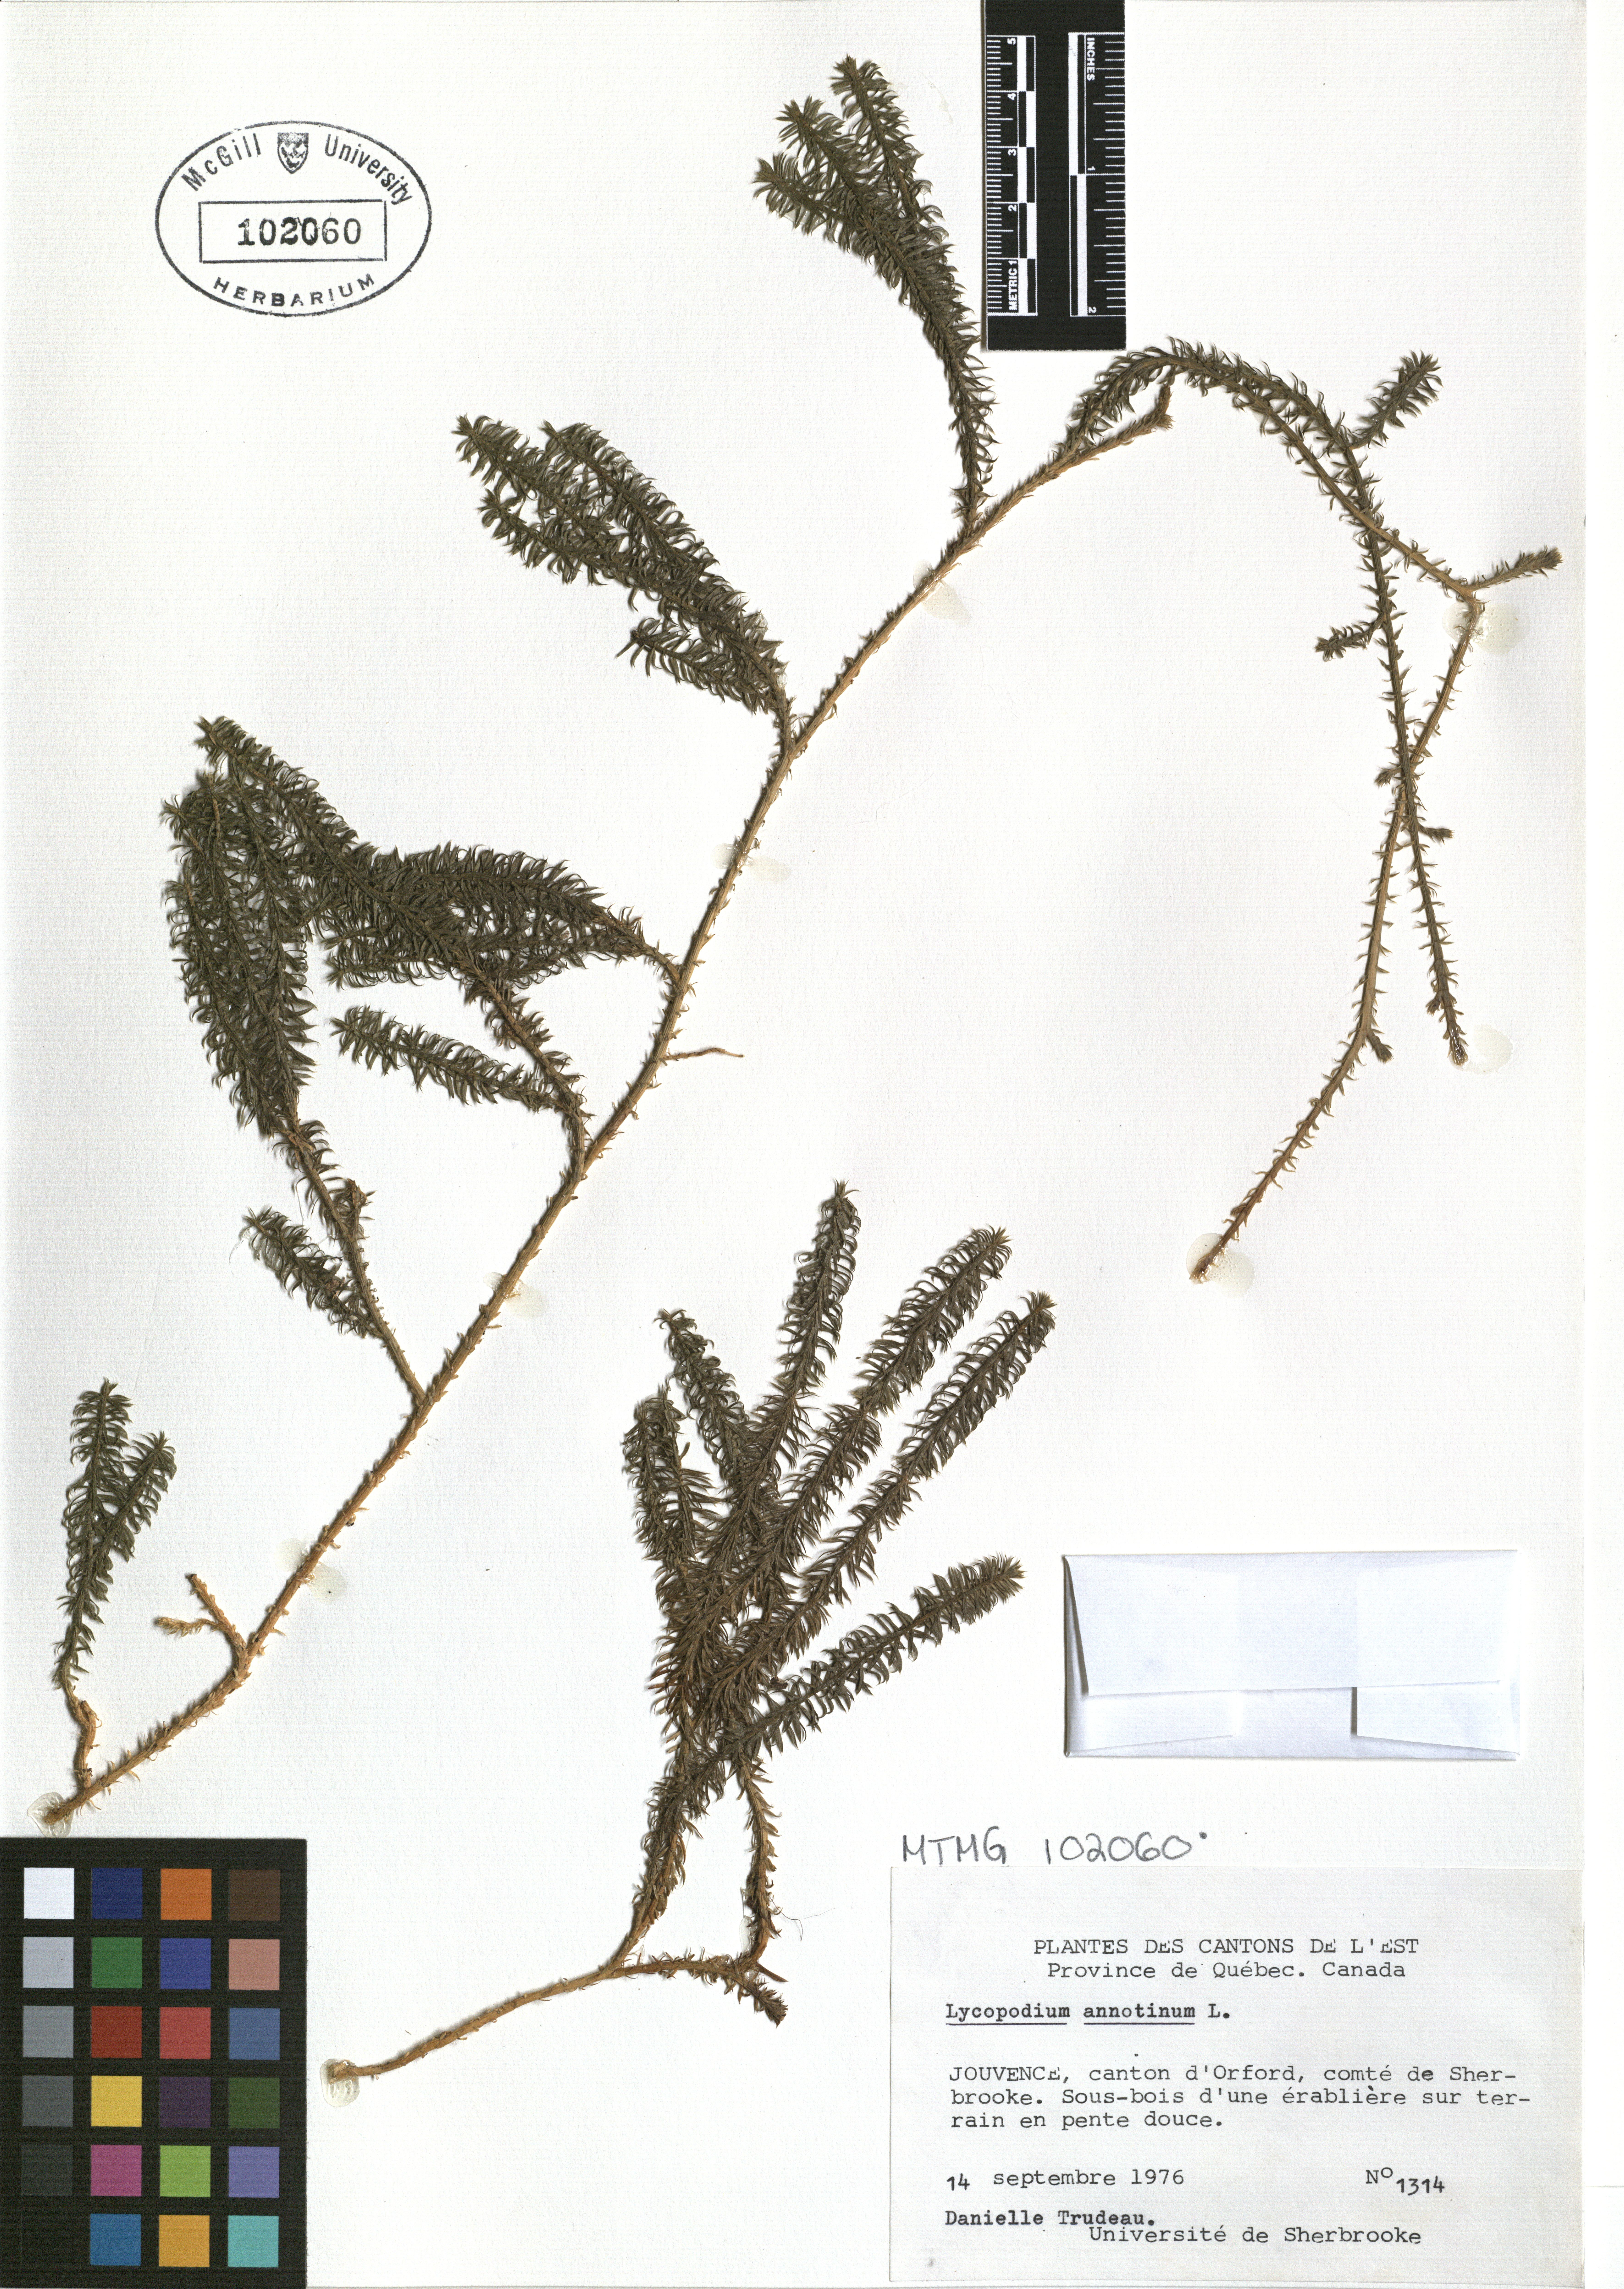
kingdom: Plantae
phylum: Tracheophyta
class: Lycopodiopsida
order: Lycopodiales
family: Lycopodiaceae
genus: Spinulum
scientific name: Spinulum annotinum
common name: Interrupted club-moss
